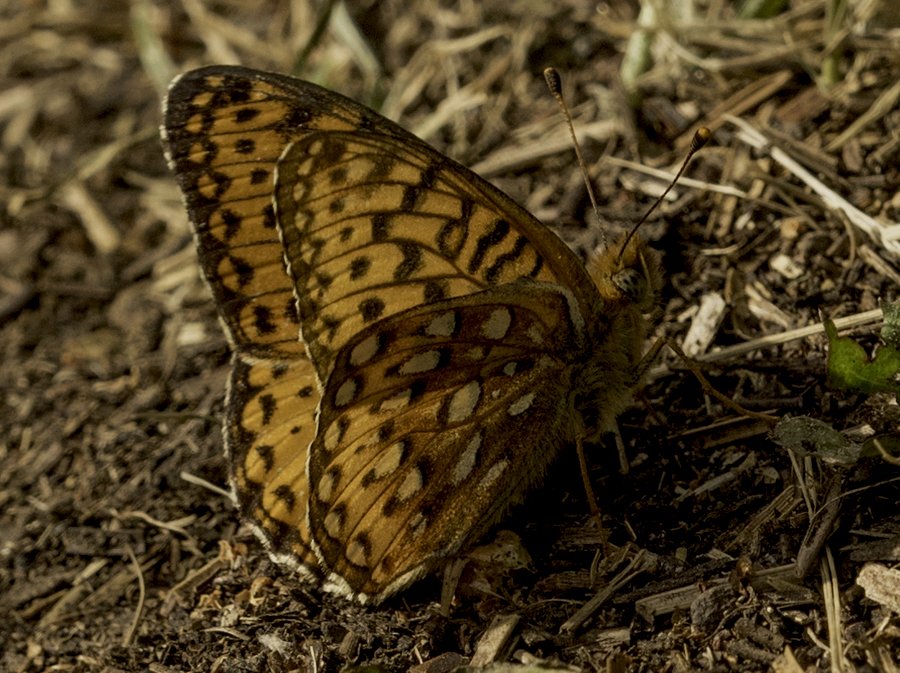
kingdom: Animalia
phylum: Arthropoda
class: Insecta
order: Lepidoptera
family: Nymphalidae
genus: Speyeria
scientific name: Speyeria atlantis
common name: Atlantis Fritillary
